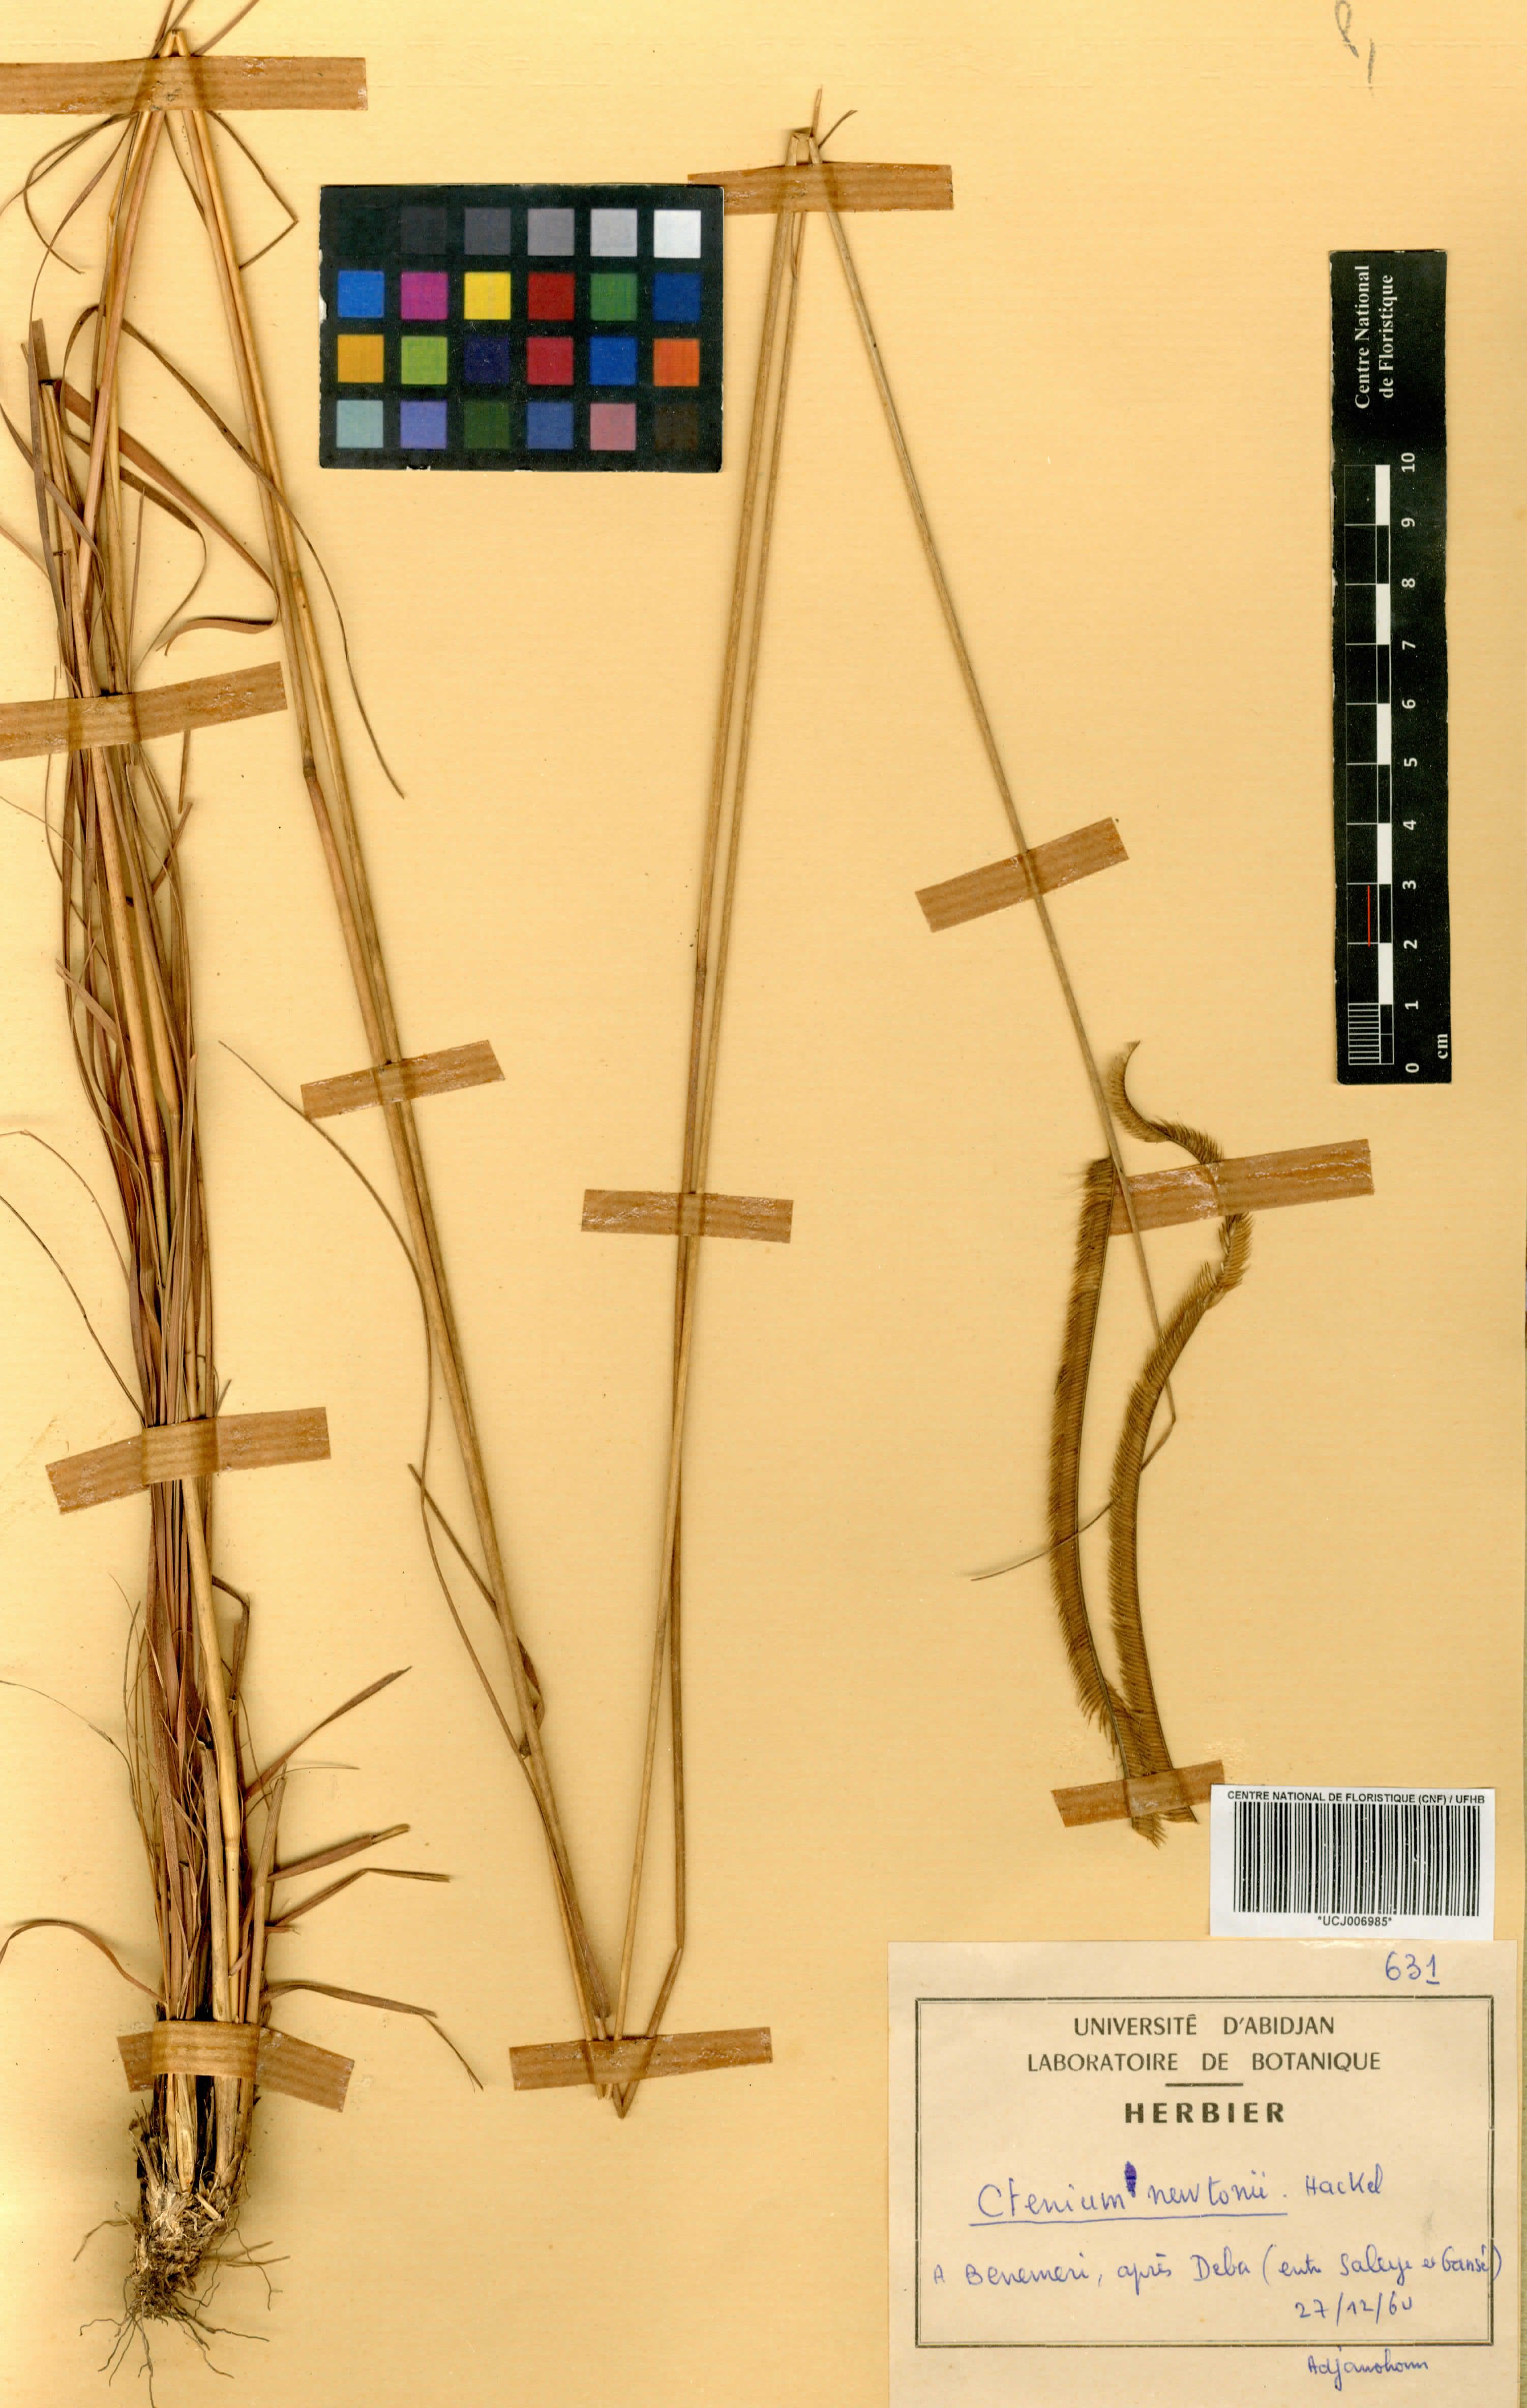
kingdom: Plantae
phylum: Tracheophyta
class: Liliopsida
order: Poales
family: Poaceae
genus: Ctenium
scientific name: Ctenium newtonii
